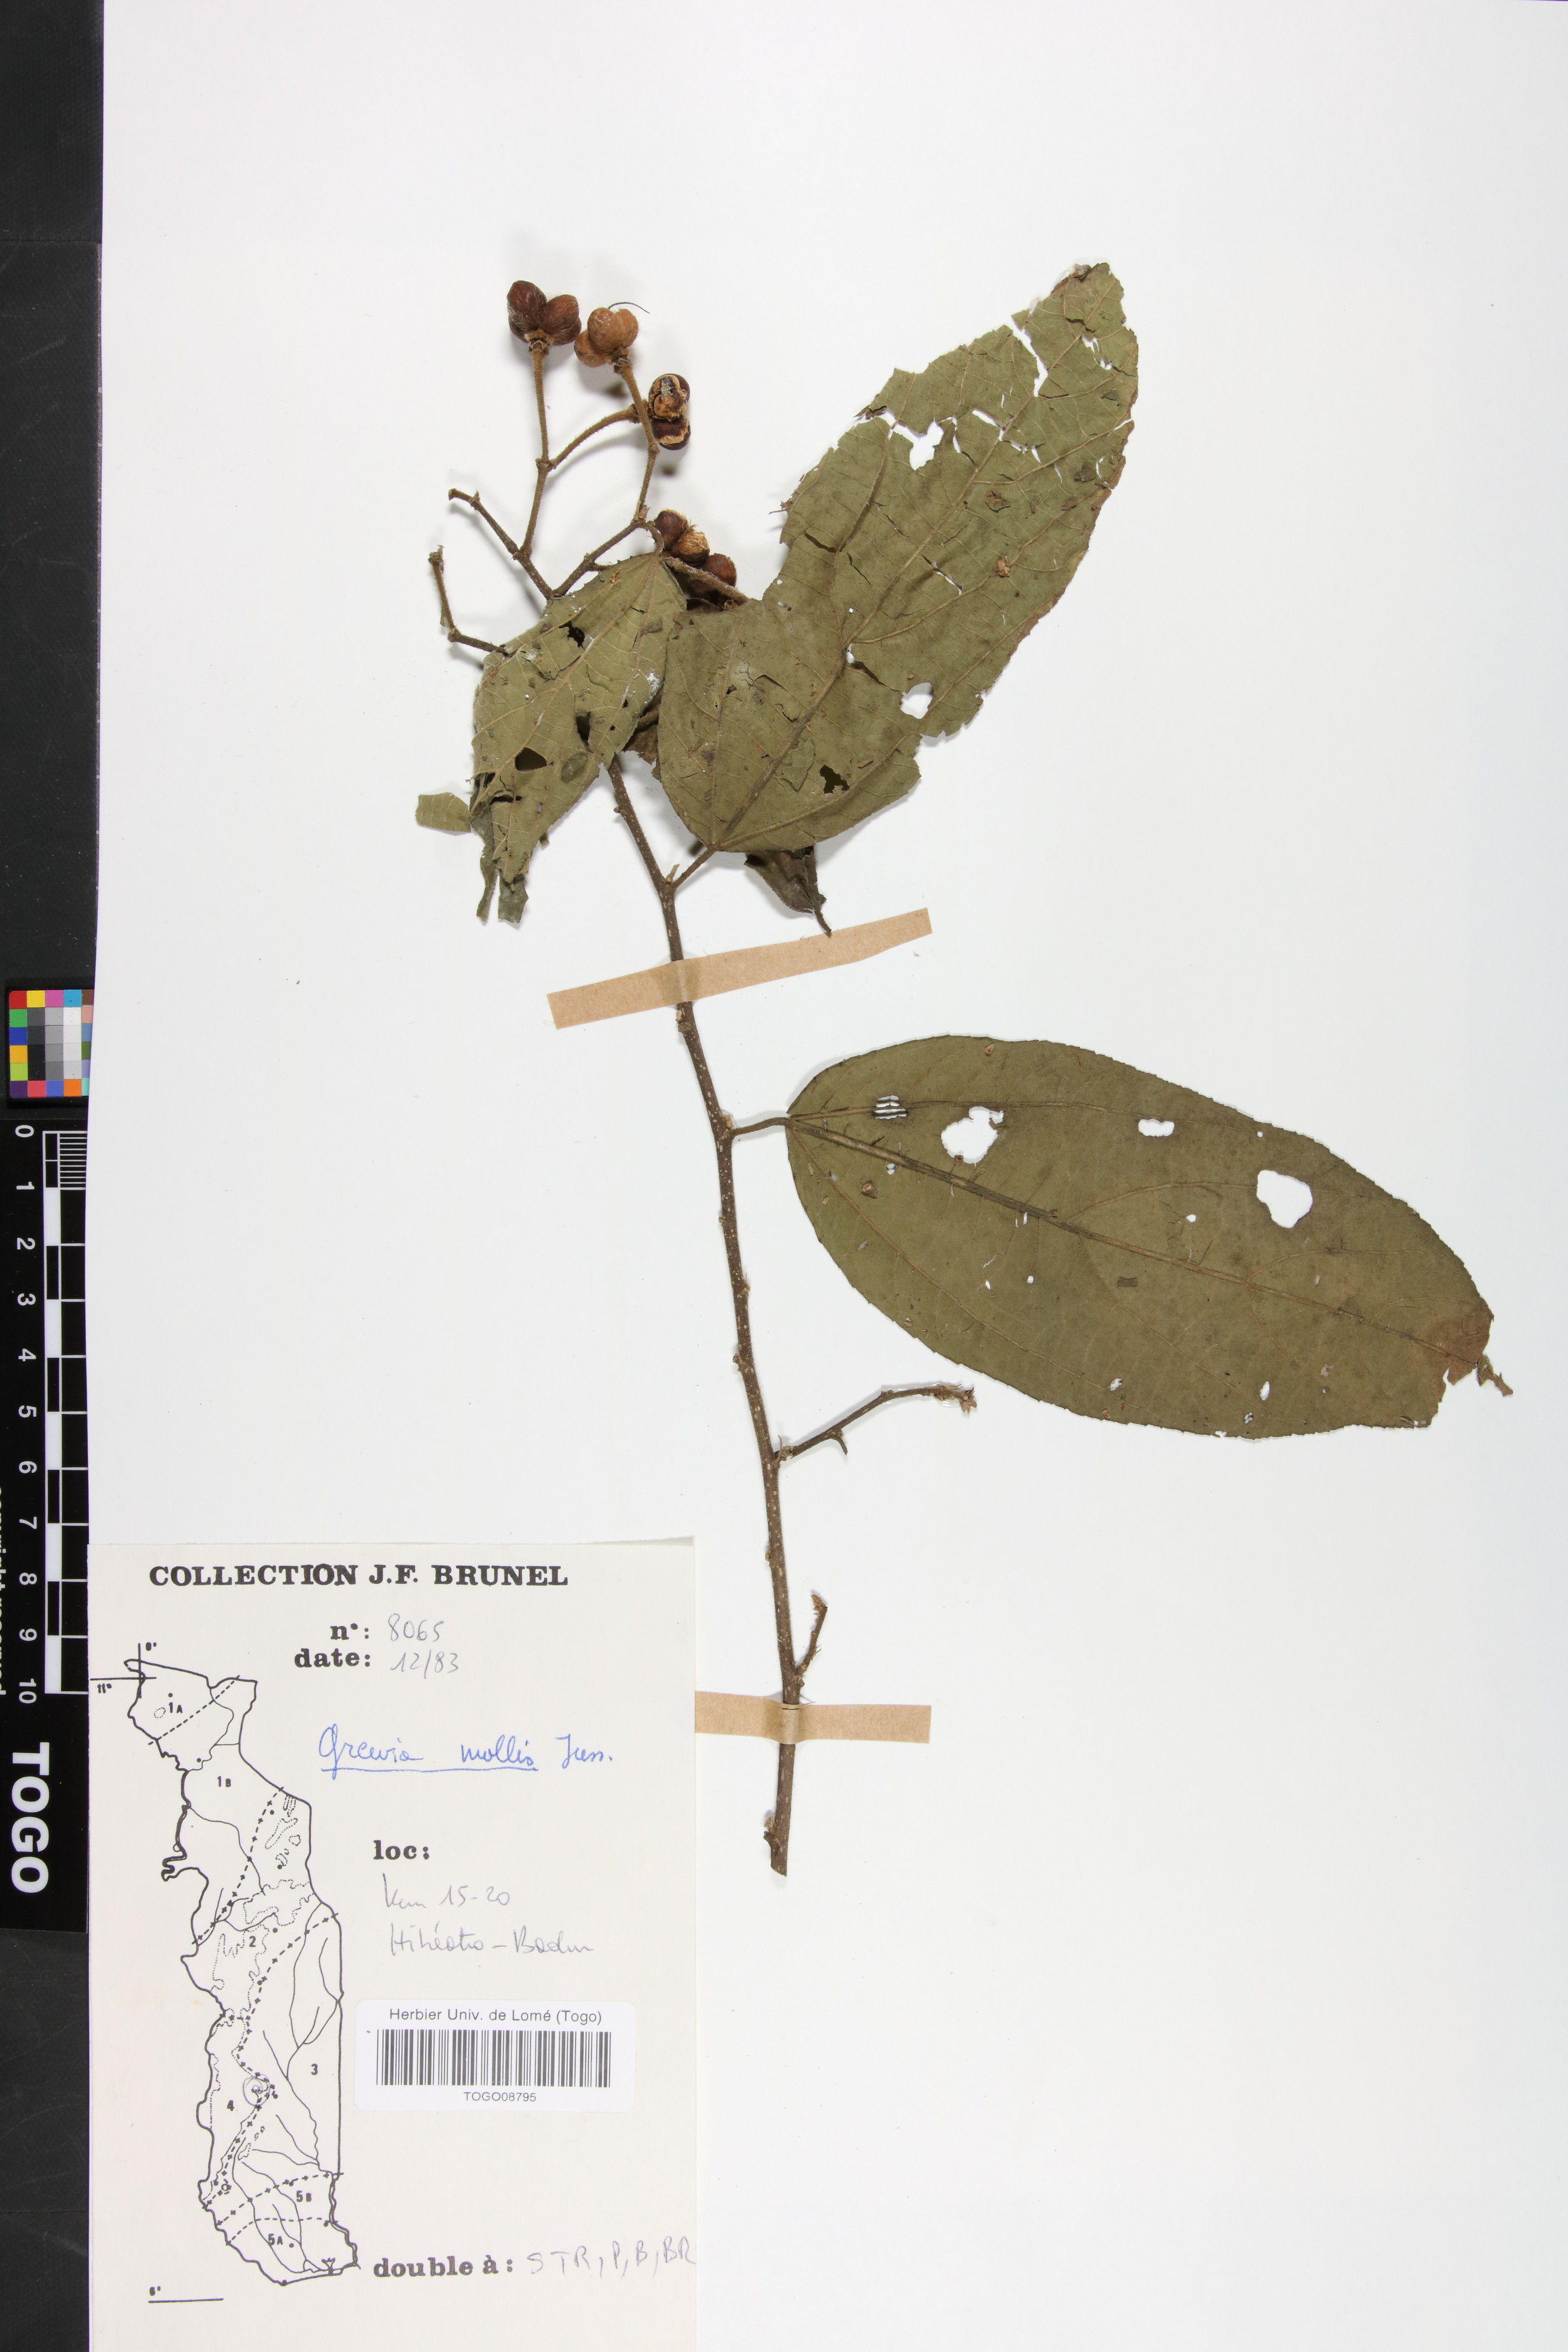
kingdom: Plantae
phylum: Tracheophyta
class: Magnoliopsida
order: Malvales
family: Malvaceae
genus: Grewia
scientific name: Grewia mollis
